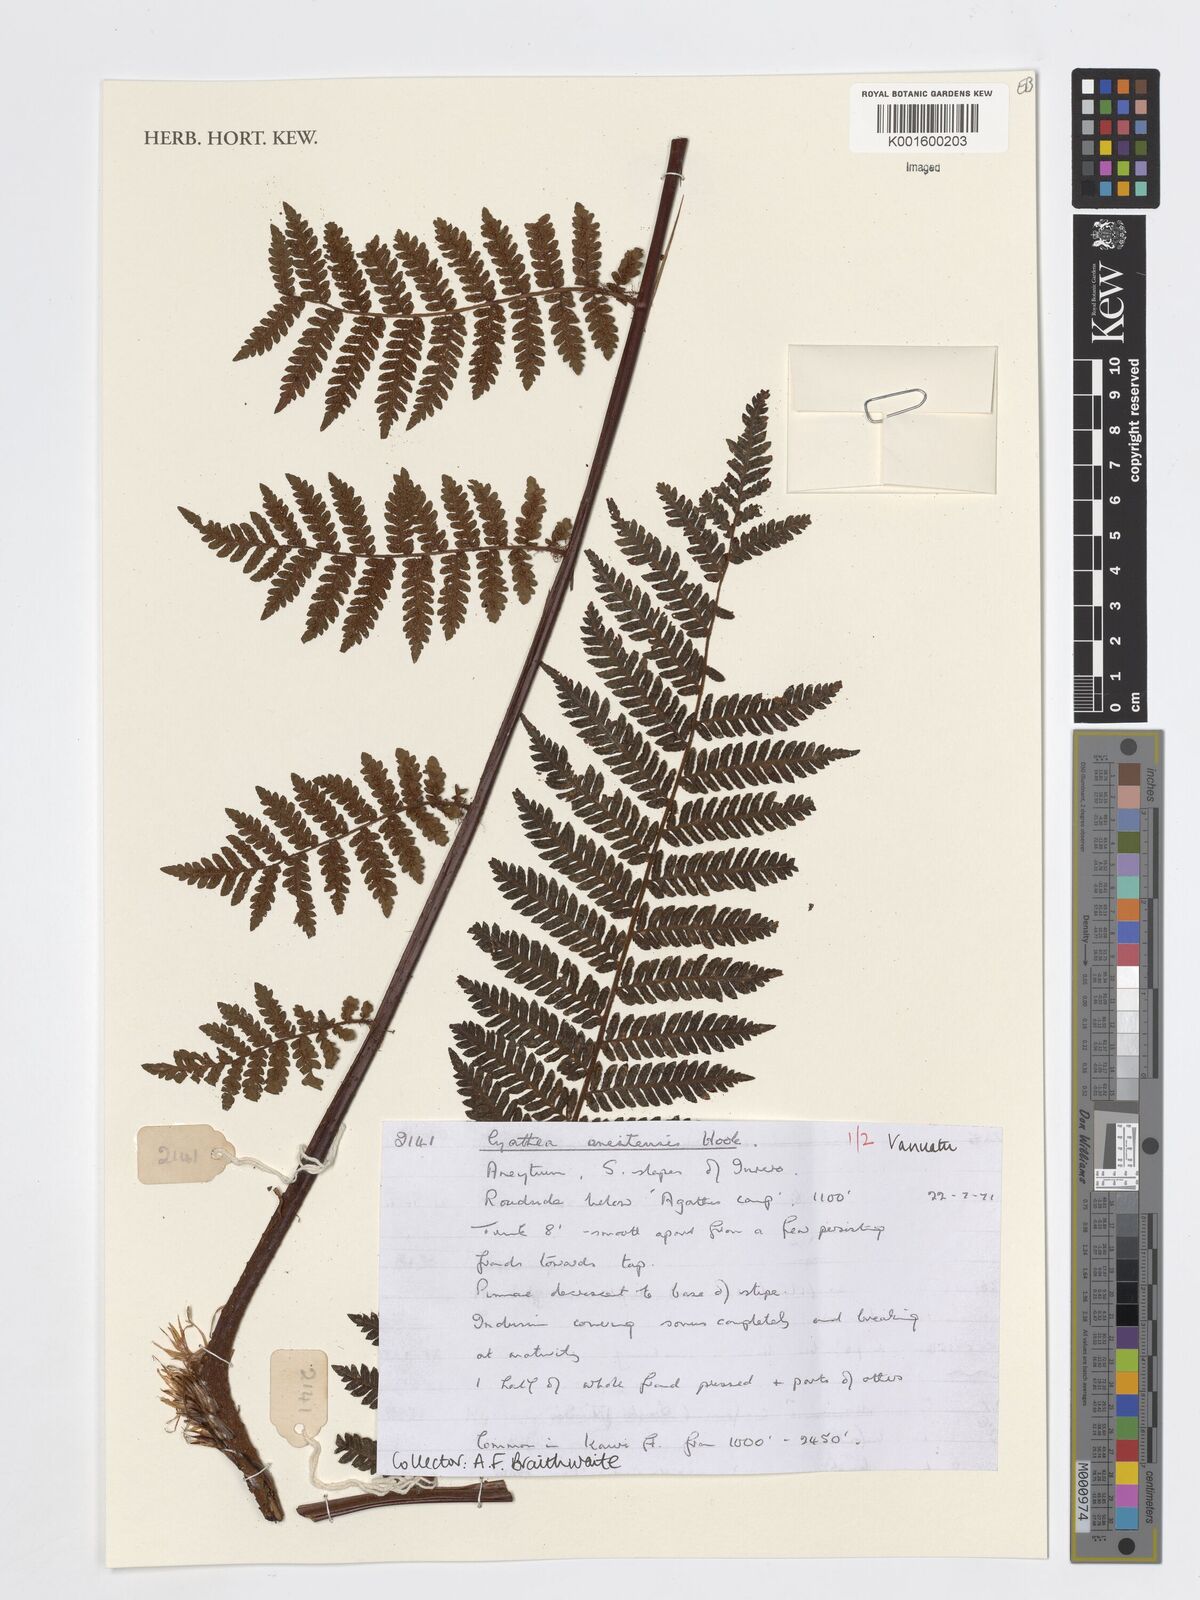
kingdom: Plantae
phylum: Tracheophyta
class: Polypodiopsida
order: Cyatheales
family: Cyatheaceae
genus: Cyathea
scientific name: Cyathea
